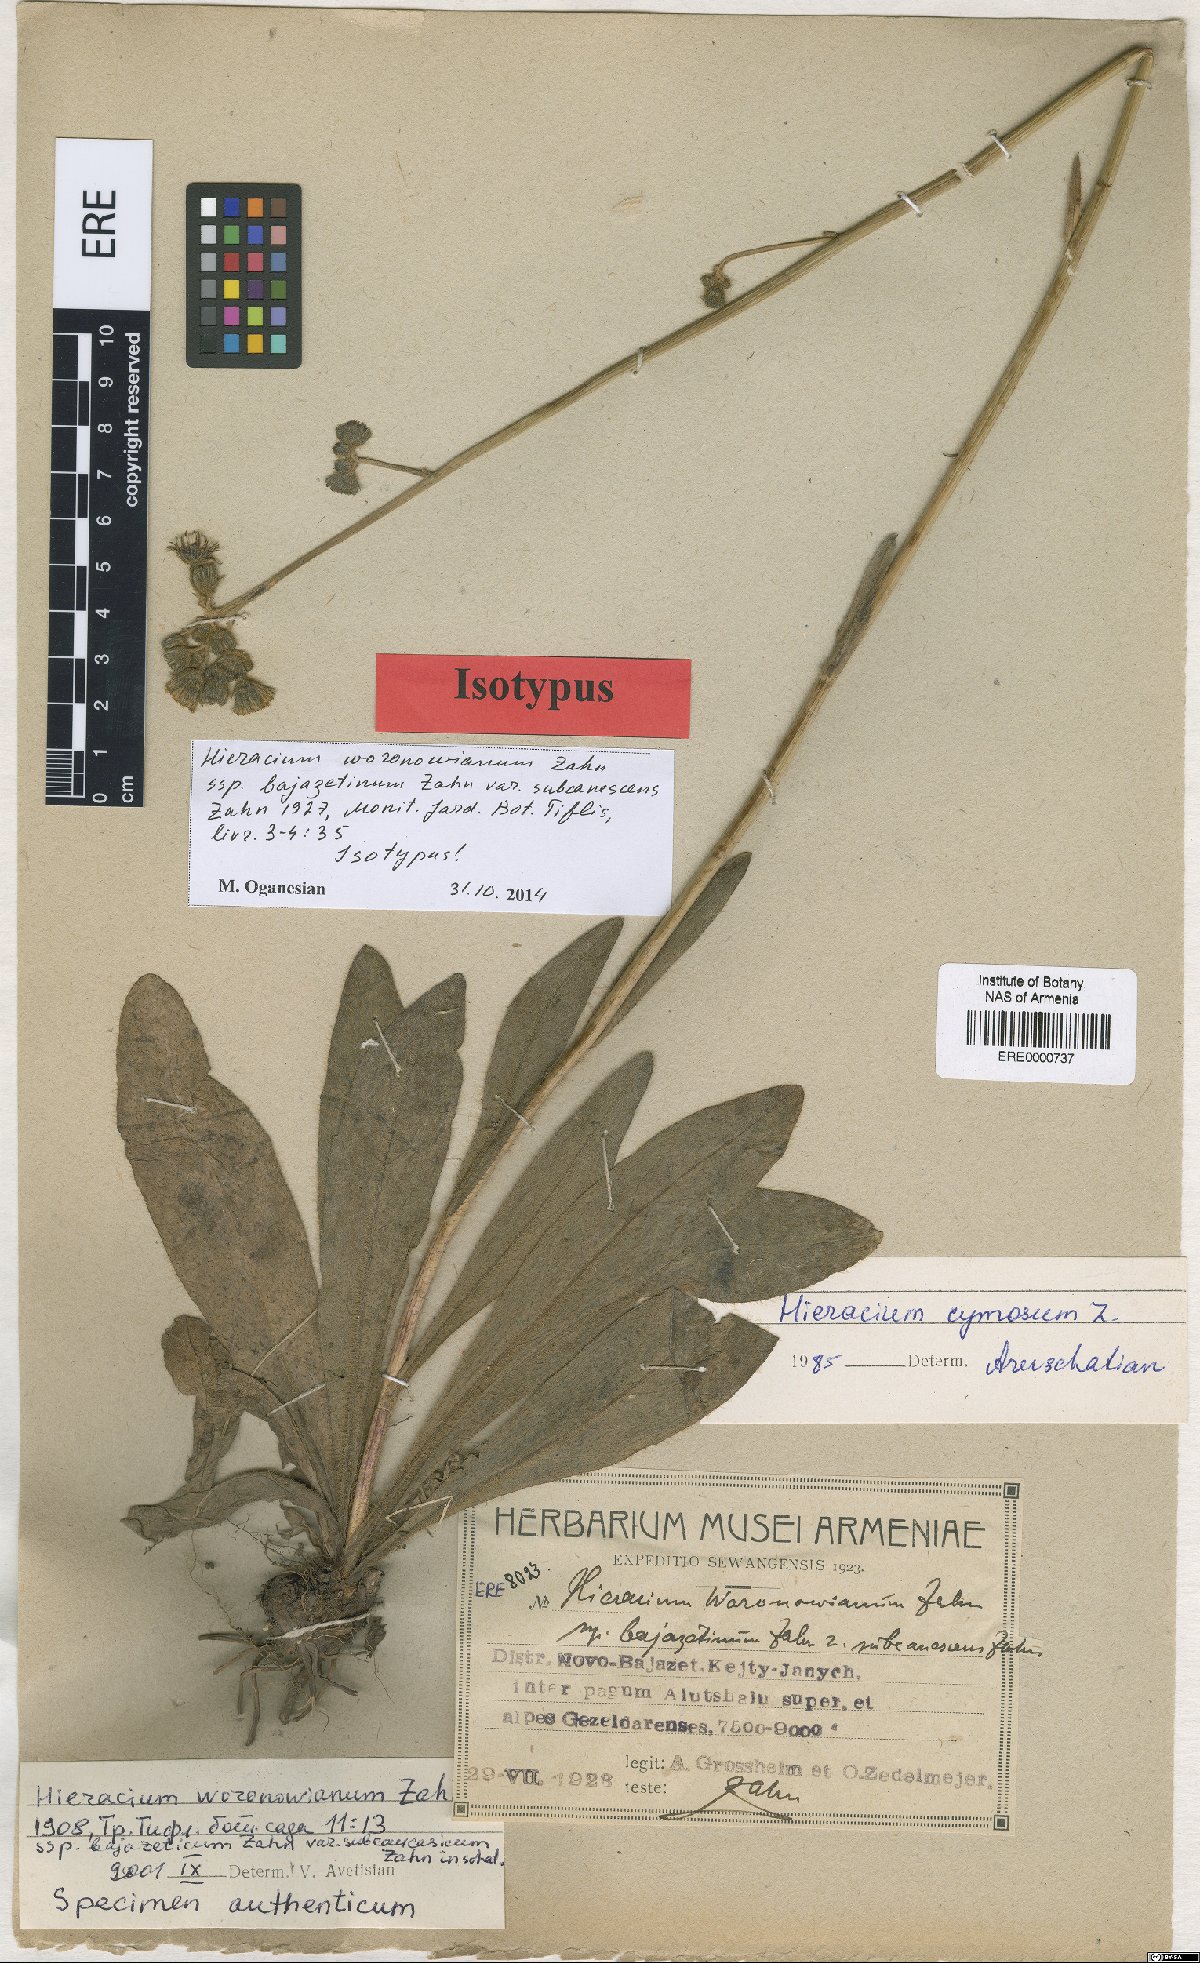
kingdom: Plantae
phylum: Tracheophyta
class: Magnoliopsida
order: Asterales
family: Asteraceae
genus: Pilosella
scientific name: Pilosella woronowiana
